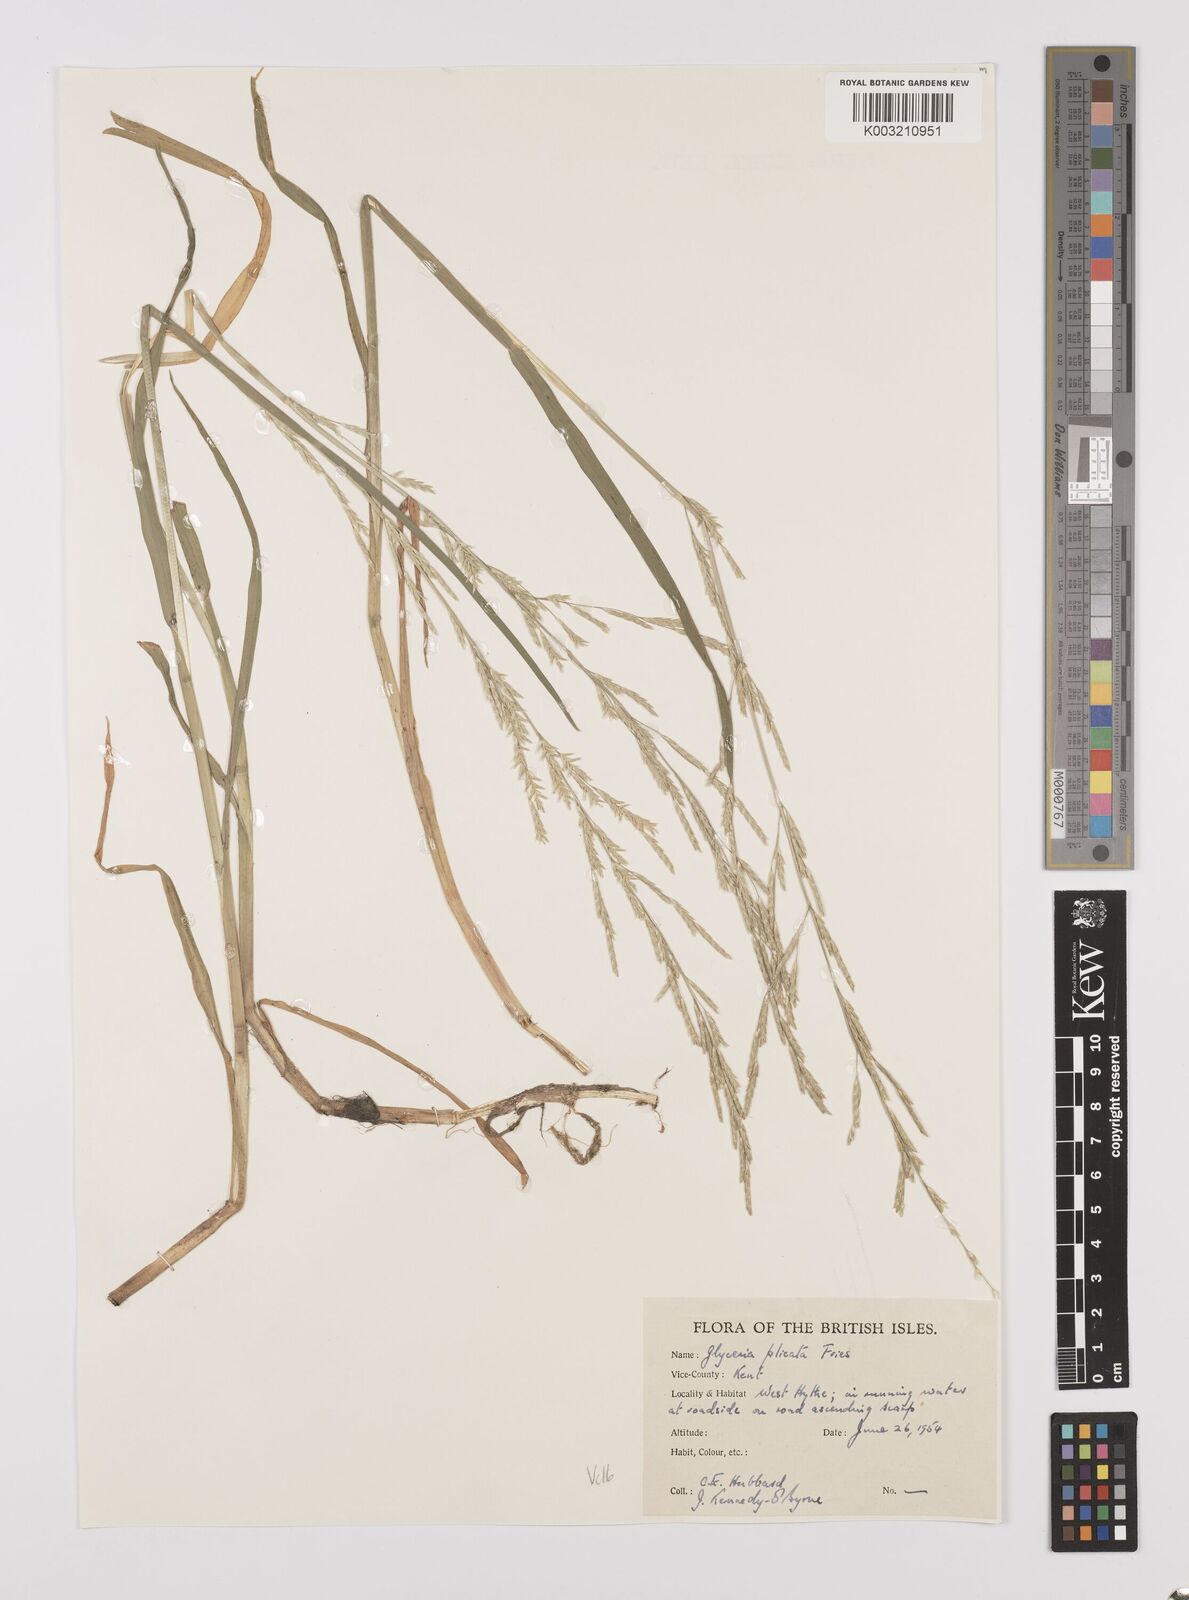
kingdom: Plantae
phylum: Tracheophyta
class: Liliopsida
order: Poales
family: Poaceae
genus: Glyceria
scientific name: Glyceria notata
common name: Plicate sweet-grass
